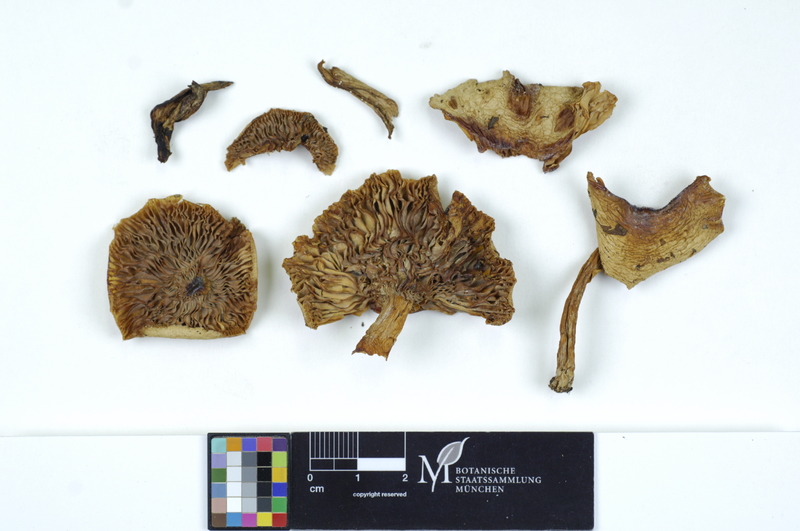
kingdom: Fungi
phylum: Basidiomycota
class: Agaricomycetes
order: Russulales
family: Russulaceae
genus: Lactarius
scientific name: Lactarius lapponicus
